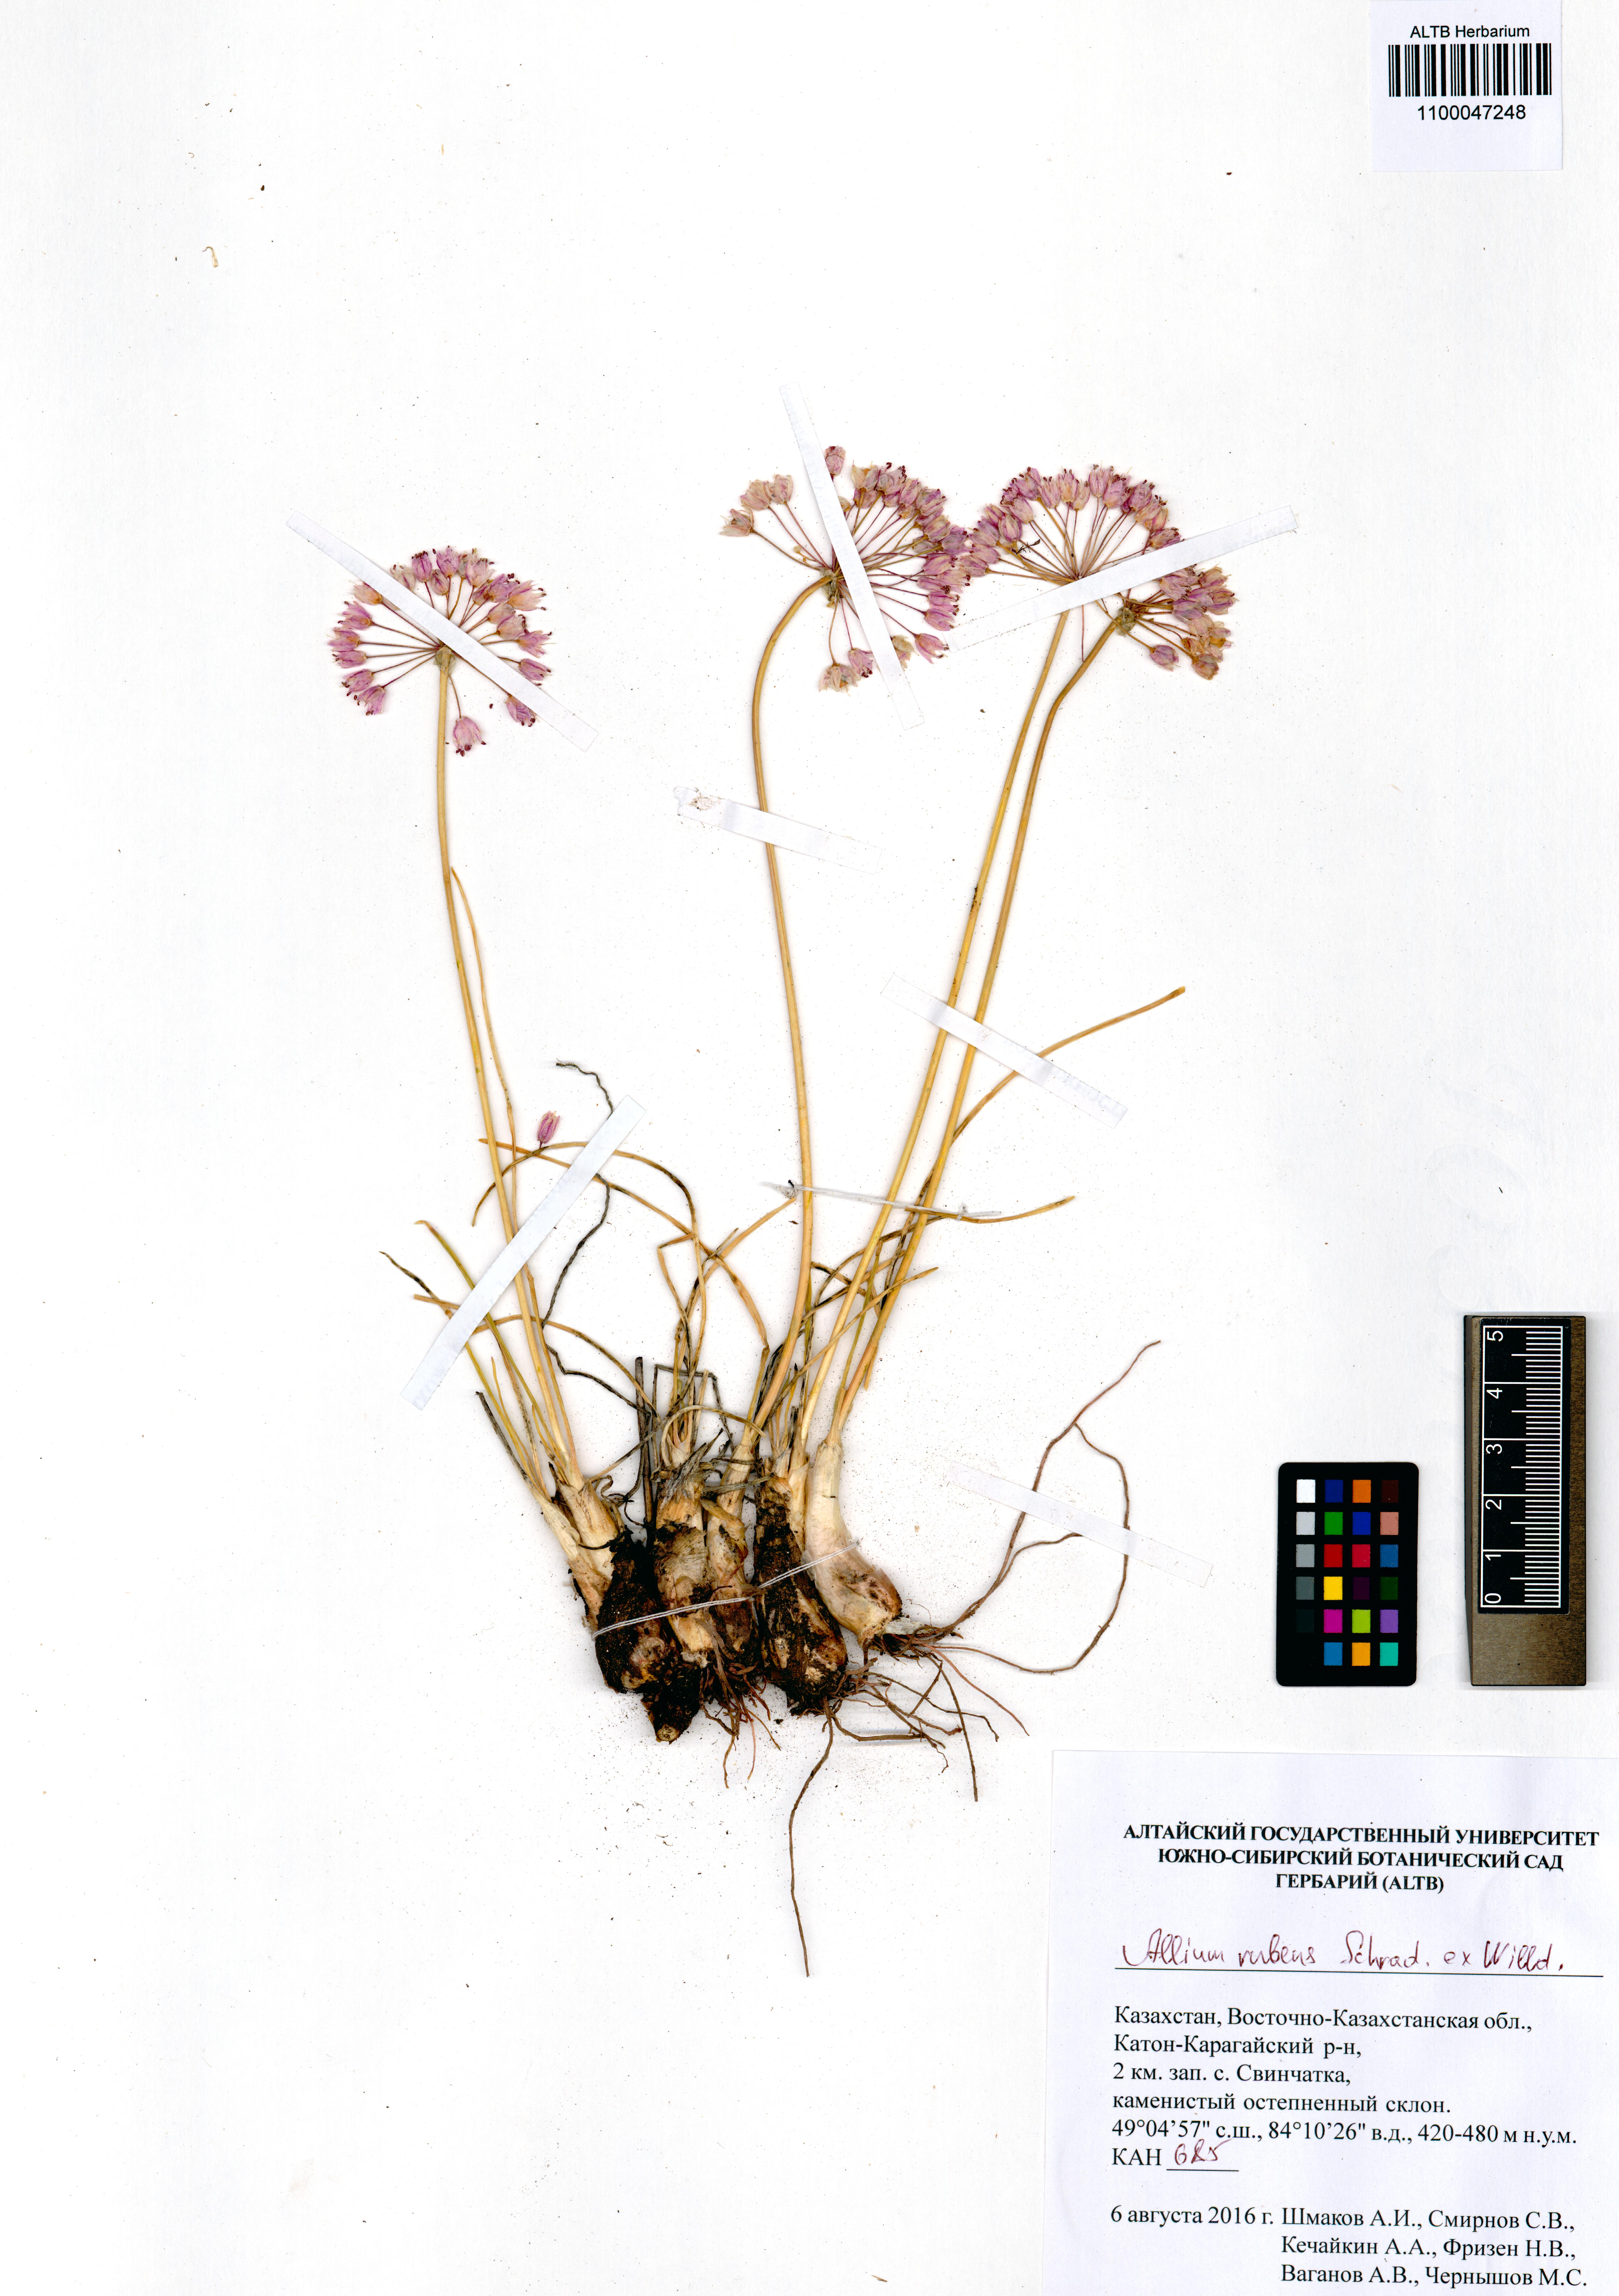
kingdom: Plantae
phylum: Tracheophyta
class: Liliopsida
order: Asparagales
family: Amaryllidaceae
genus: Allium
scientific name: Allium rubens
